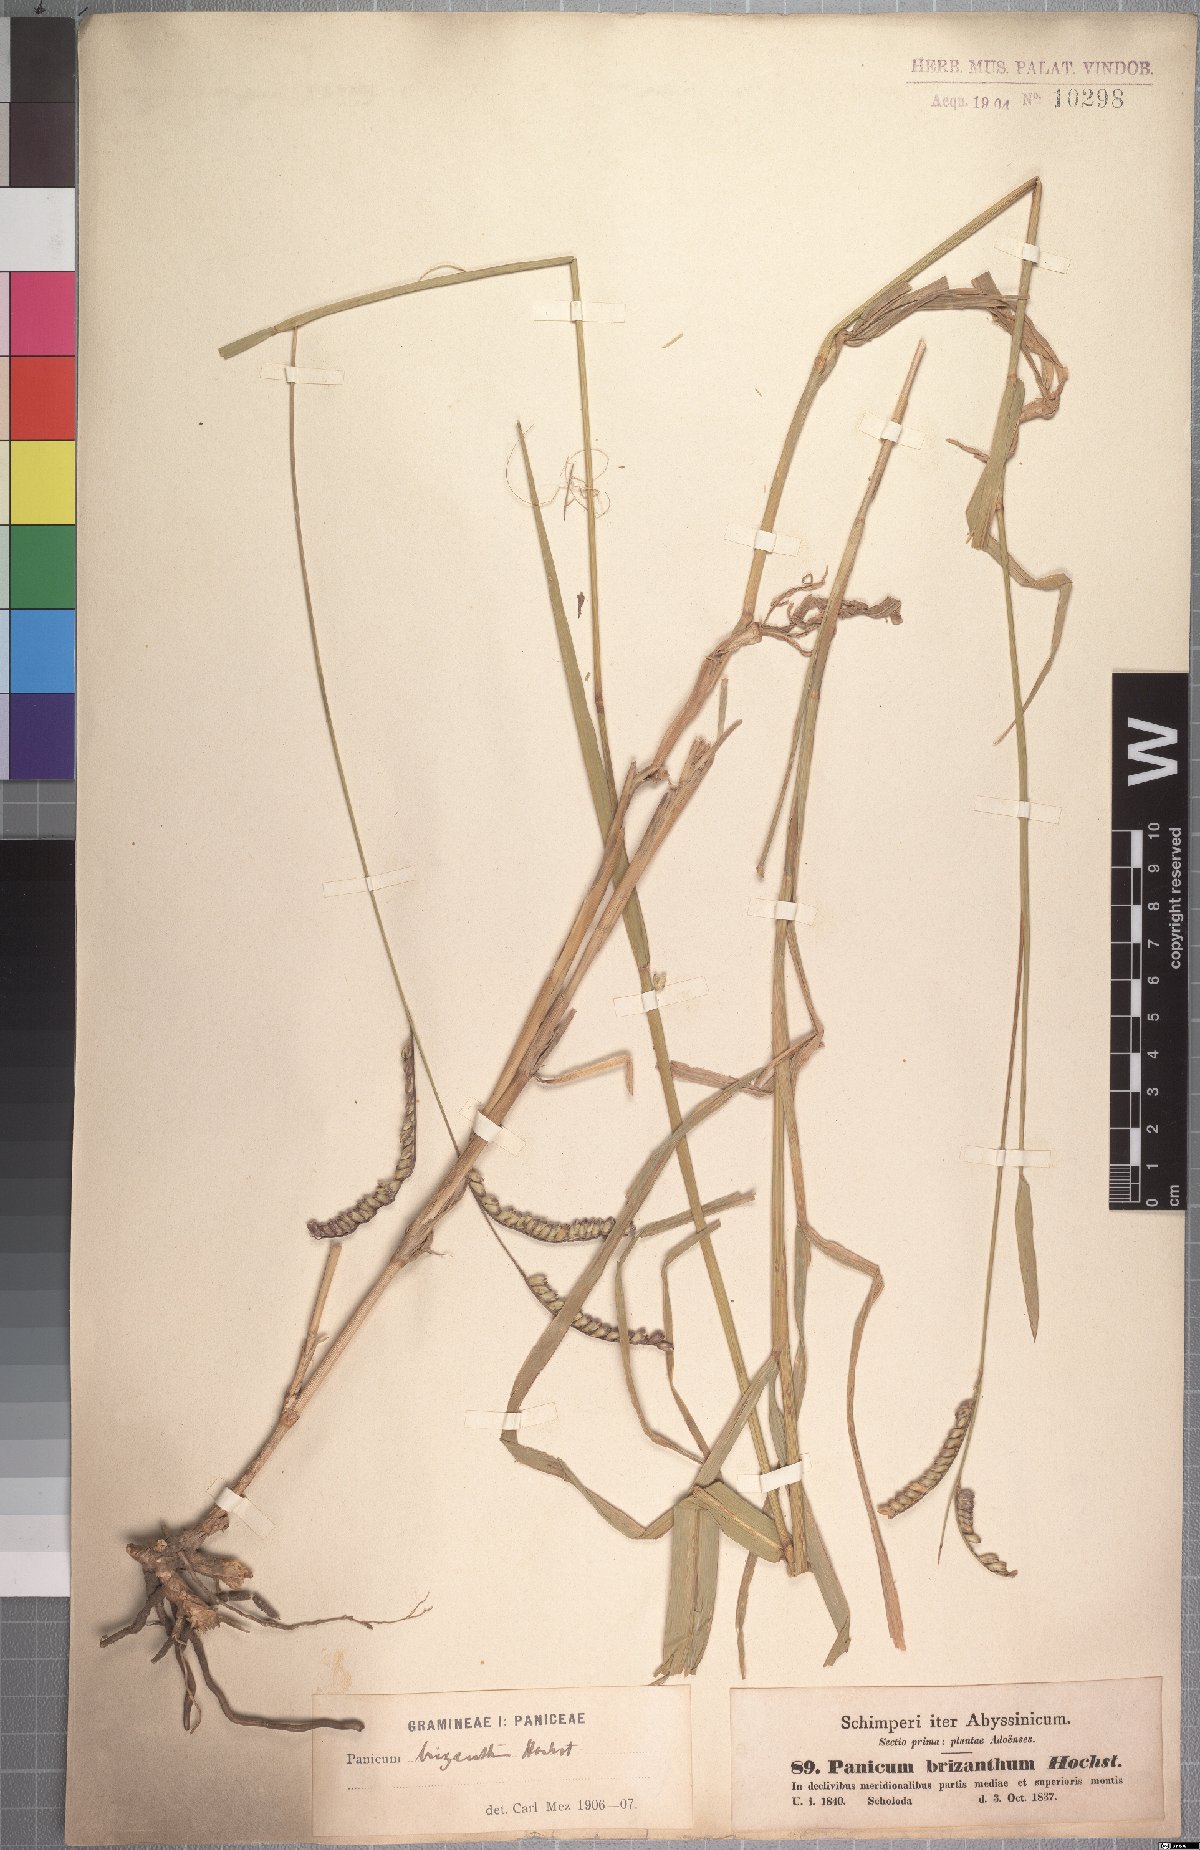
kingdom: Plantae
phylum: Tracheophyta
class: Liliopsida
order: Poales
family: Poaceae
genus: Urochloa
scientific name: Urochloa brizantha
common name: Palisade signalgrass
